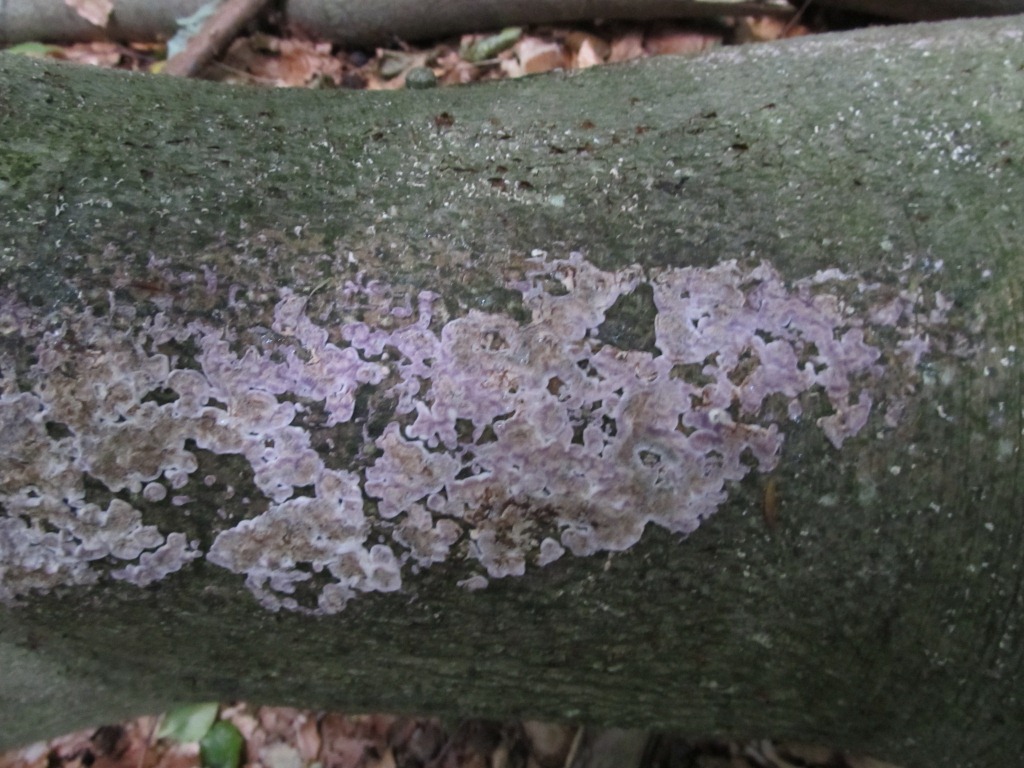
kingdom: Fungi
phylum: Basidiomycota
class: Agaricomycetes
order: Agaricales
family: Cyphellaceae
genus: Chondrostereum
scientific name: Chondrostereum purpureum
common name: purpurlædersvamp
